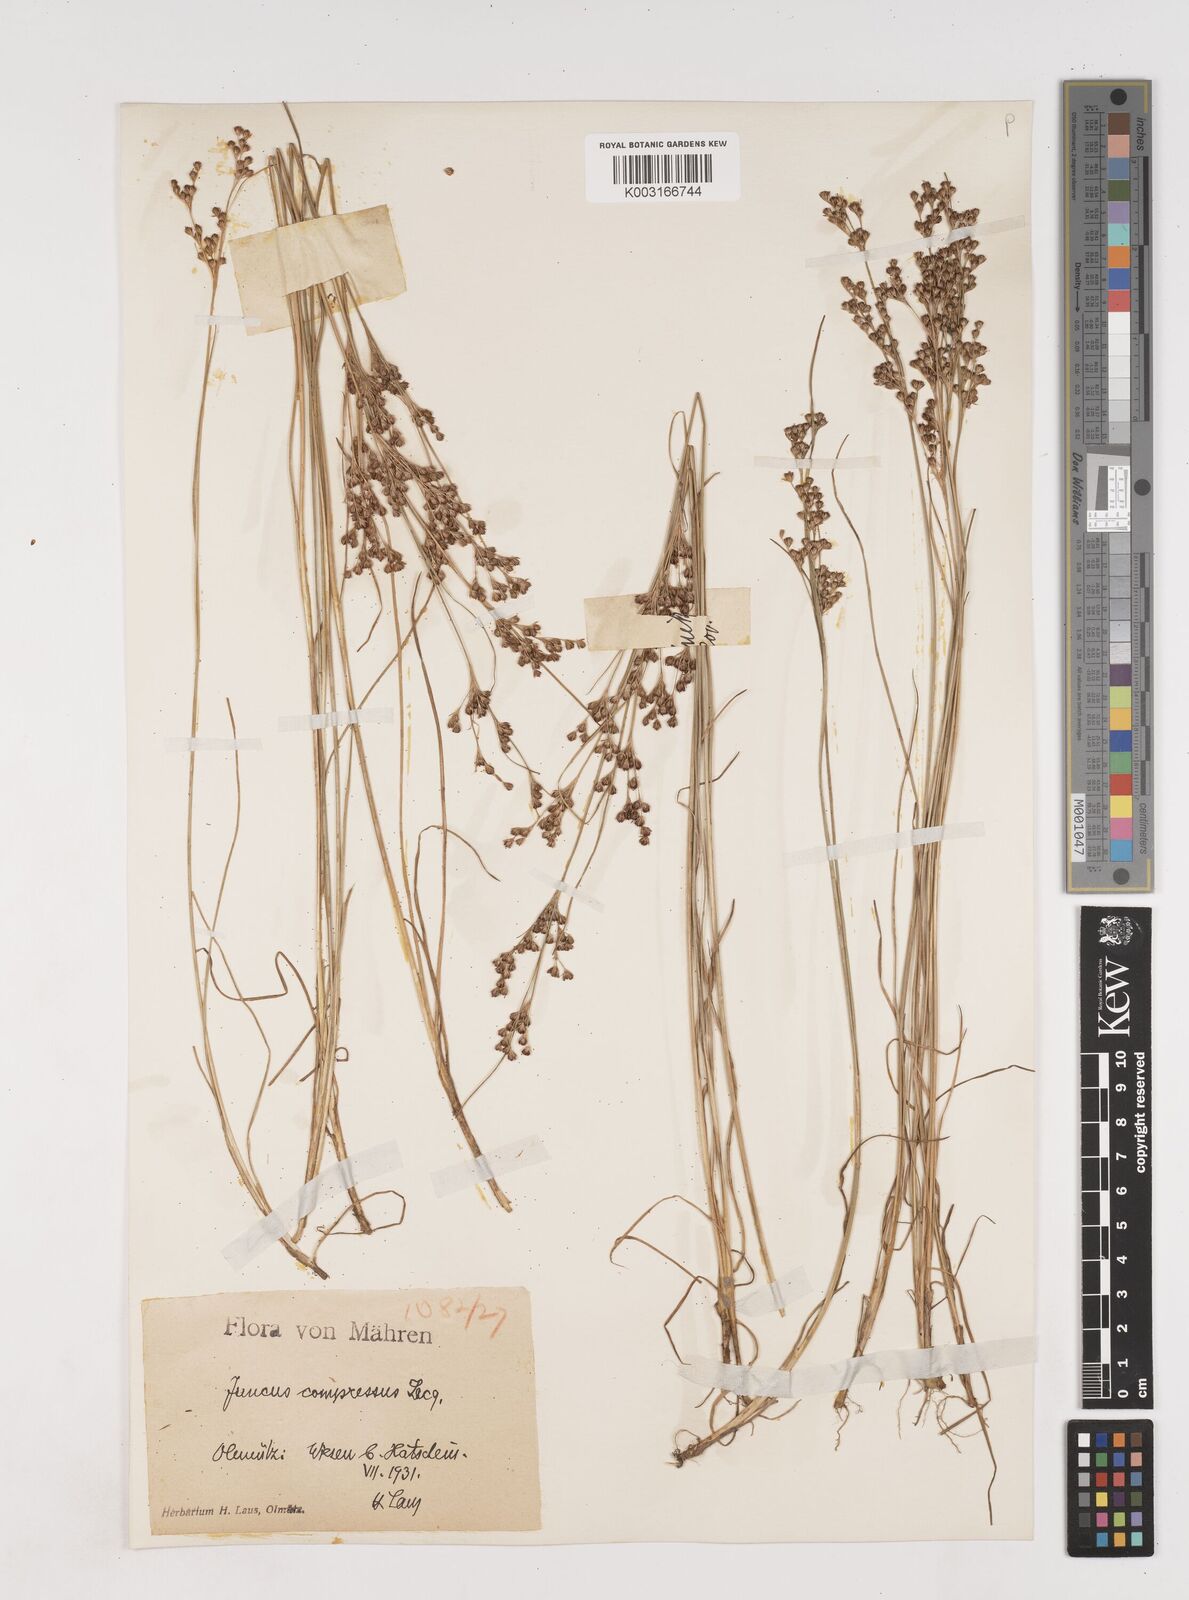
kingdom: Plantae
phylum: Tracheophyta
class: Liliopsida
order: Poales
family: Juncaceae
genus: Juncus
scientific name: Juncus
